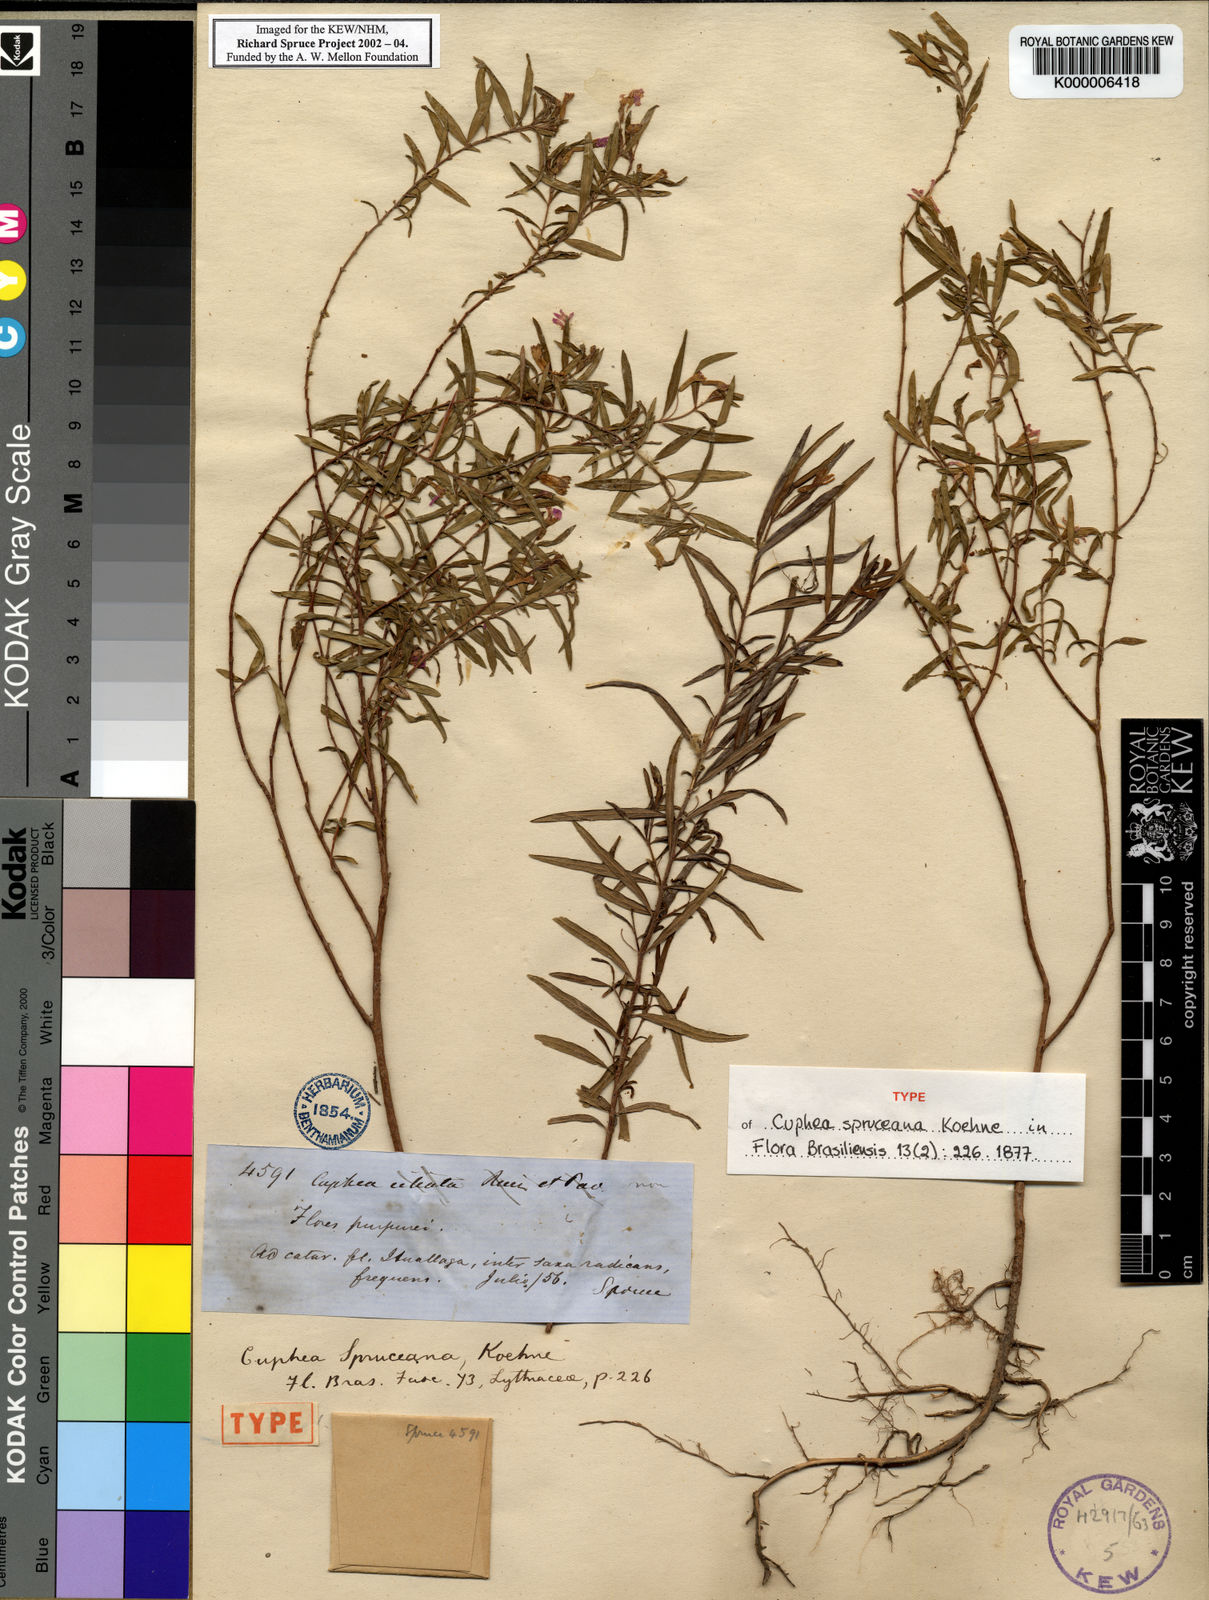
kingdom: Plantae
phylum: Tracheophyta
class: Magnoliopsida
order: Myrtales
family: Lythraceae
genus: Cuphea
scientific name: Cuphea spruceana
